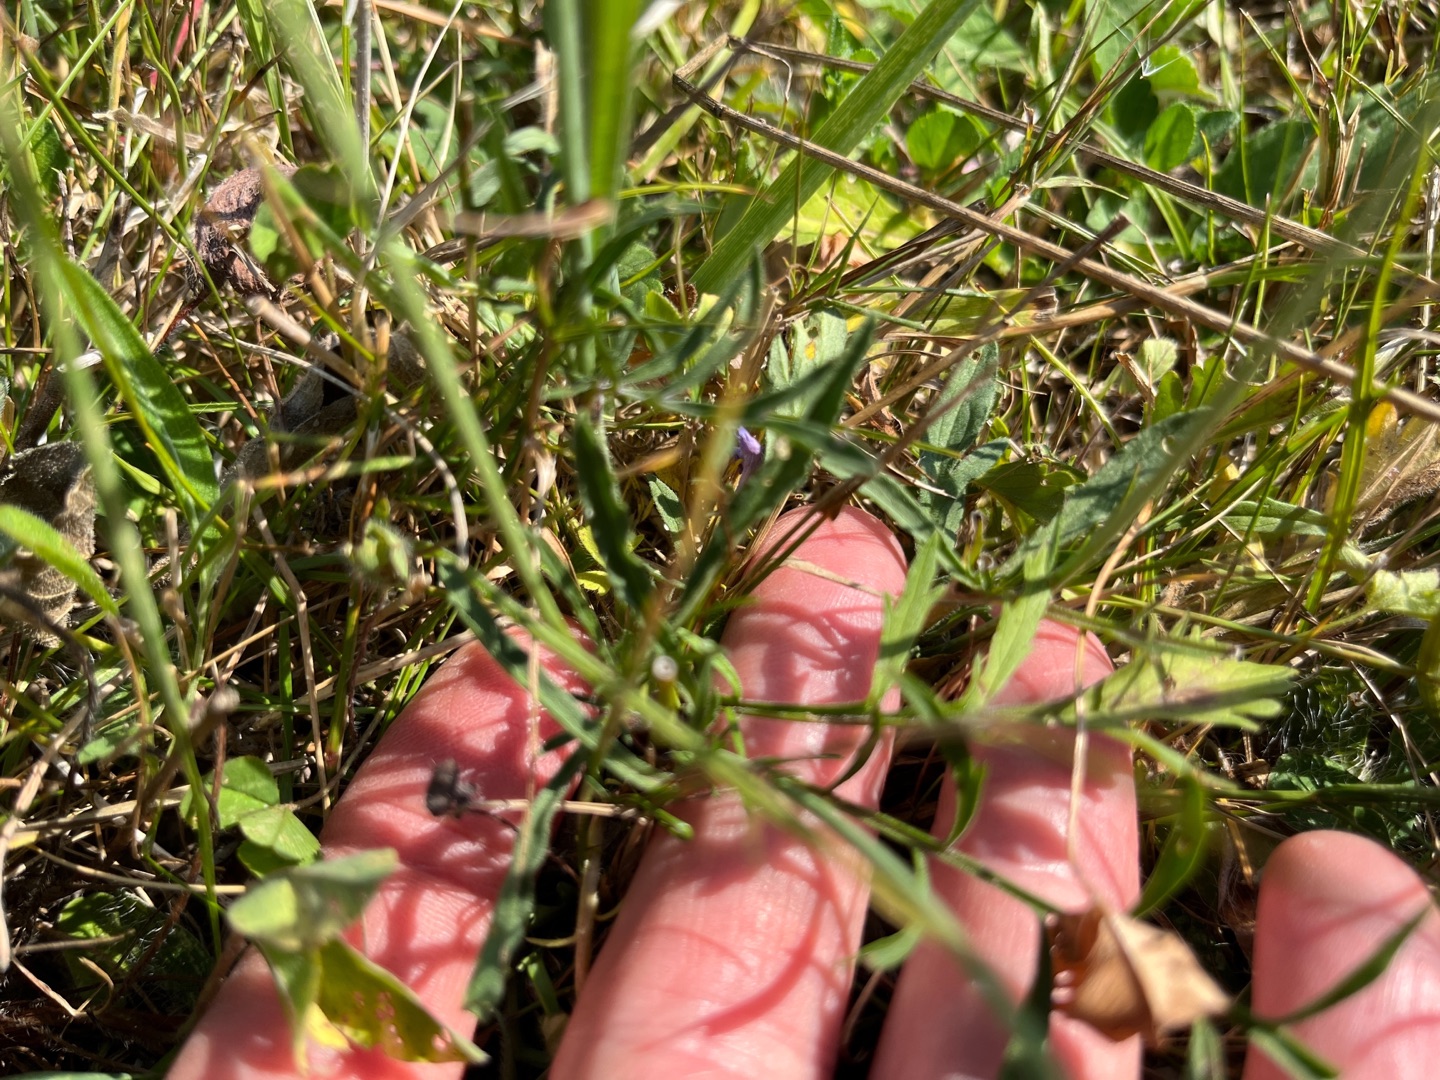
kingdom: Plantae
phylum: Tracheophyta
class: Magnoliopsida
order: Dipsacales
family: Caprifoliaceae
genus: Scabiosa
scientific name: Scabiosa columbaria
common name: Due-skabiose
